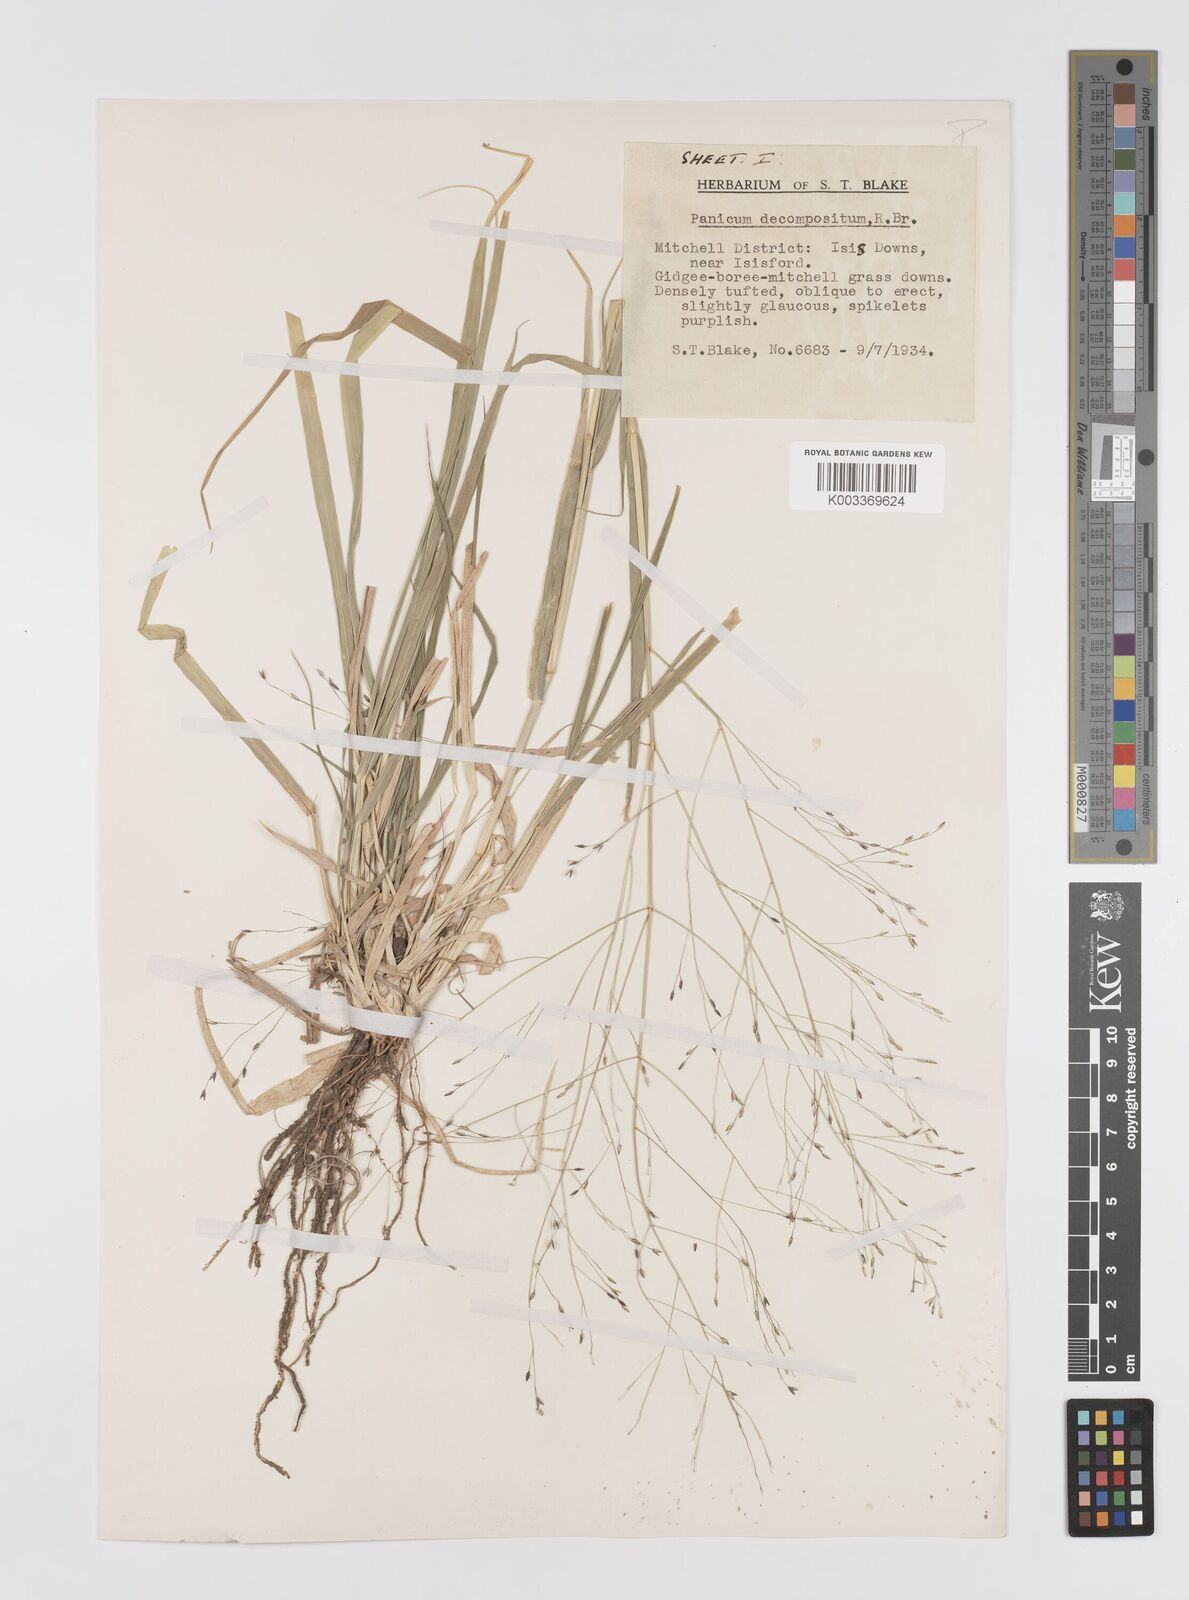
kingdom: Plantae
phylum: Tracheophyta
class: Liliopsida
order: Poales
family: Poaceae
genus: Panicum
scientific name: Panicum decompositum
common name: Australian millet
